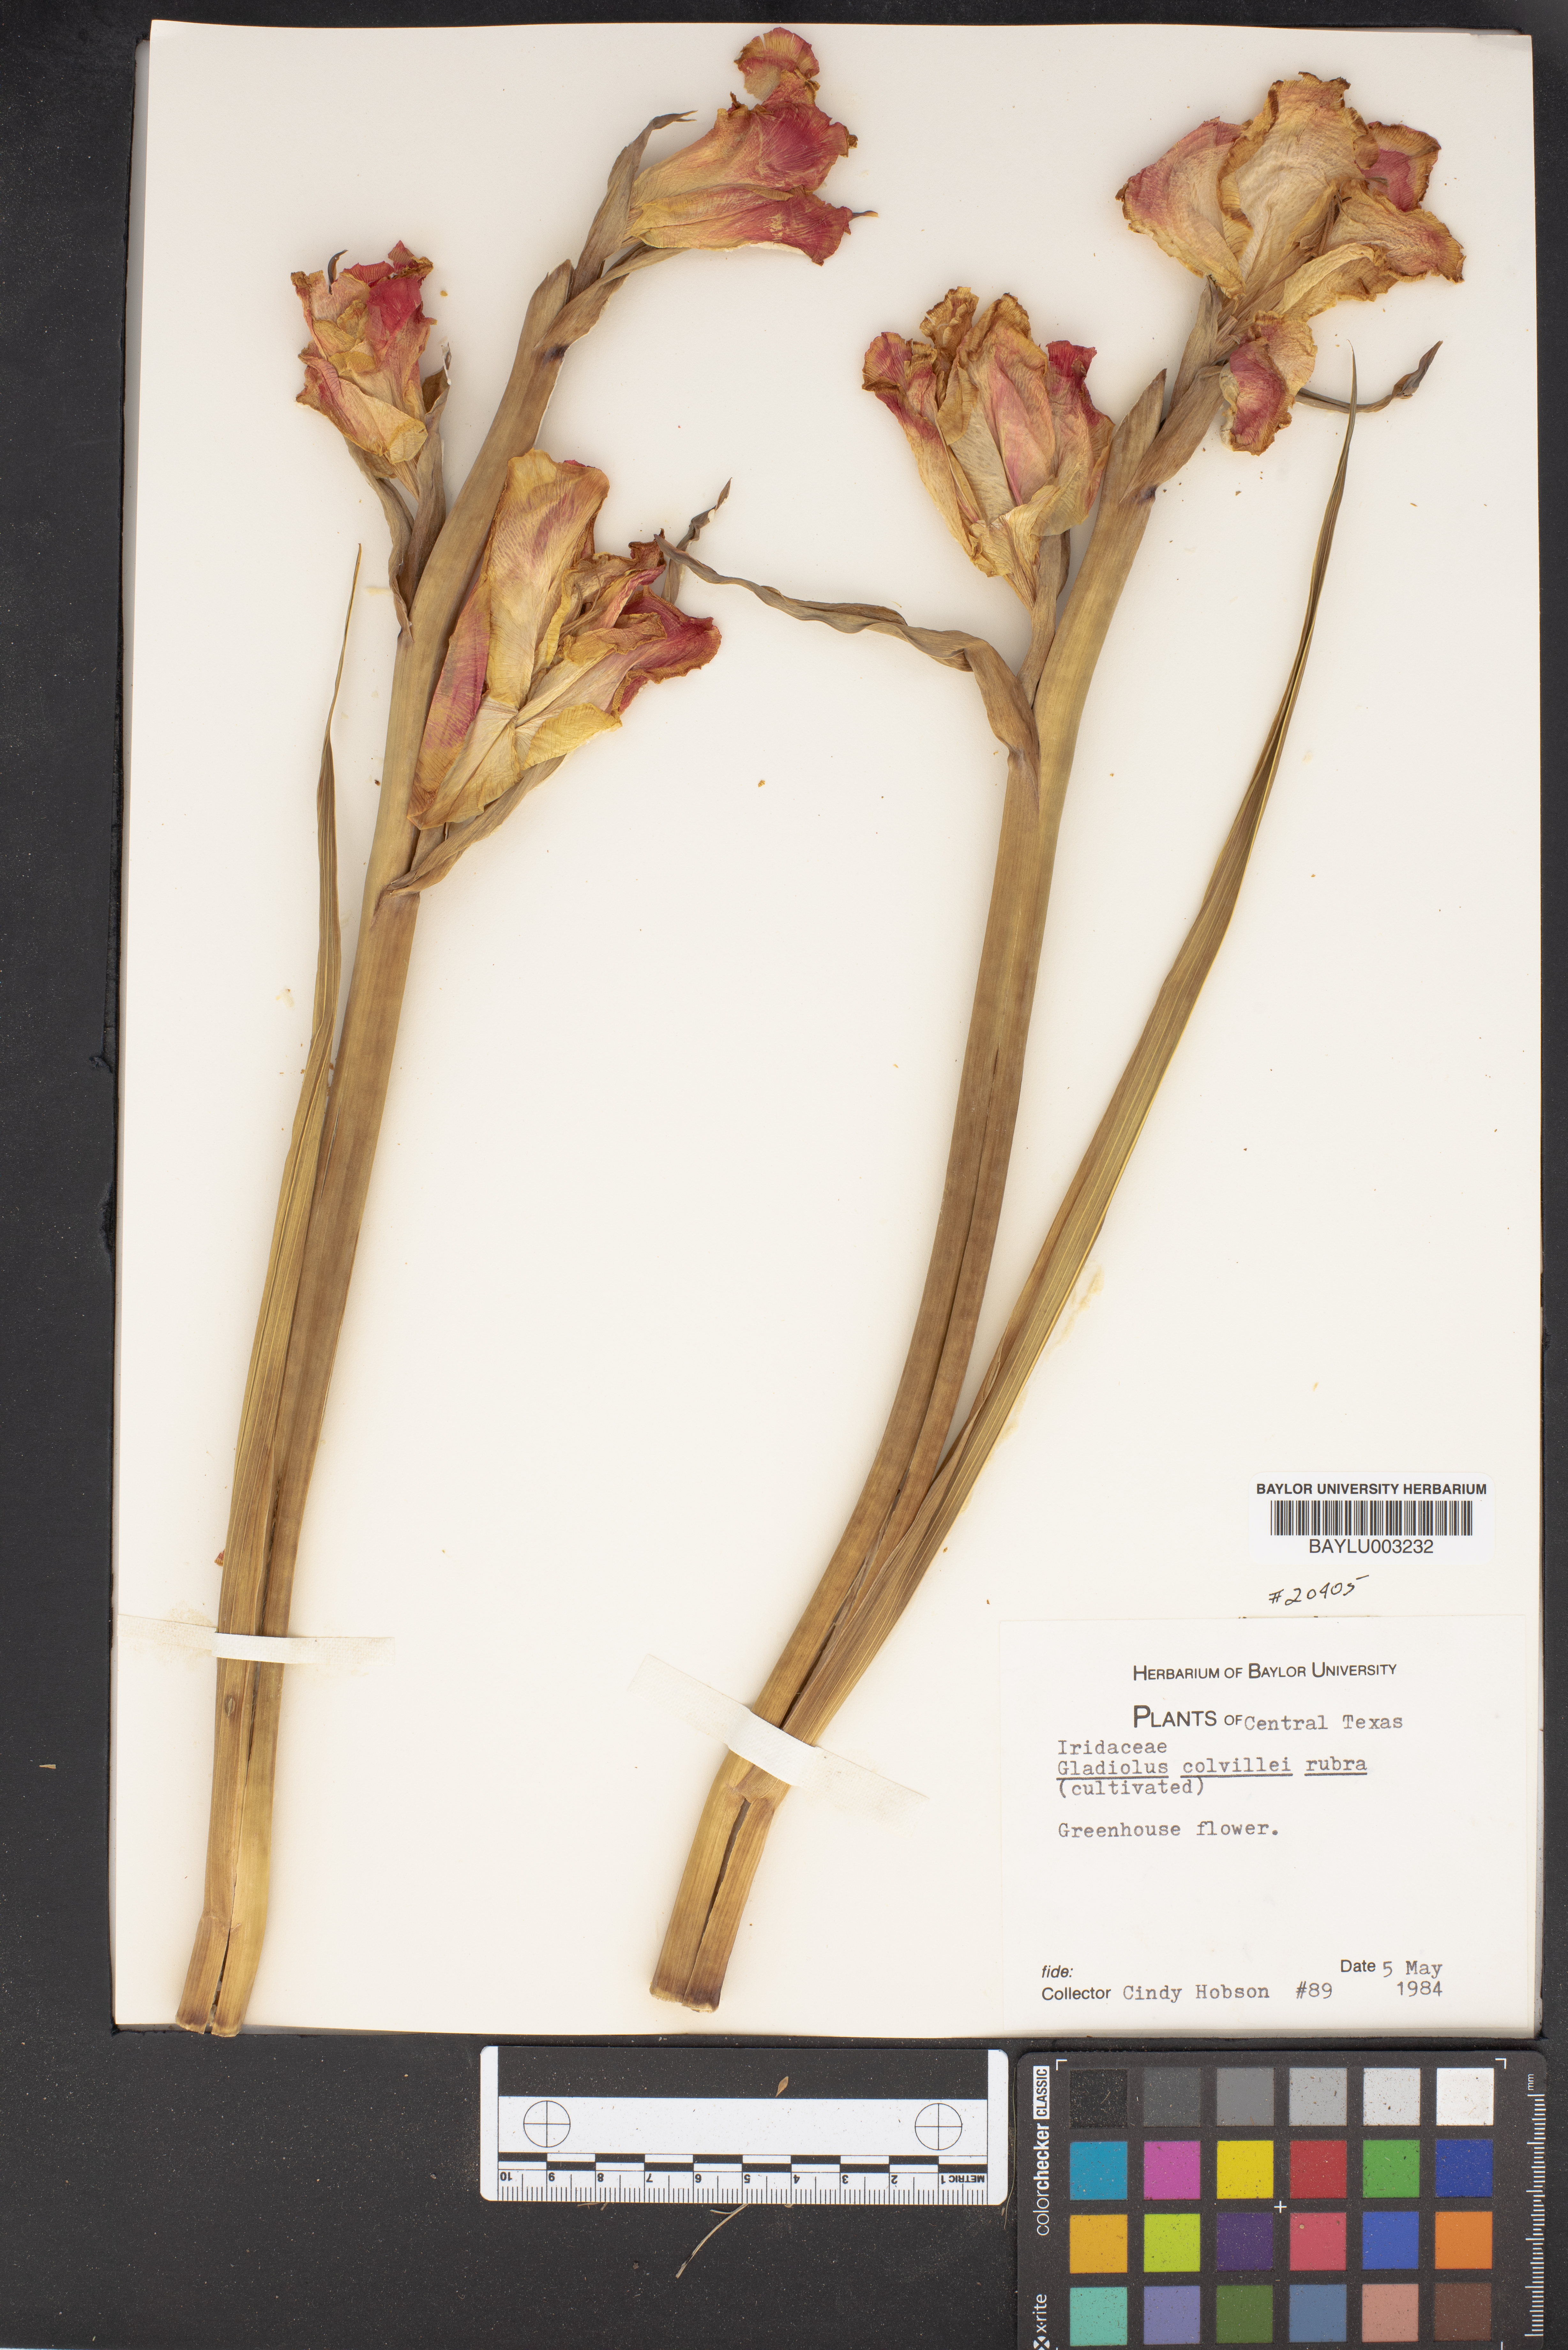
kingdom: Plantae
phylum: Tracheophyta
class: Liliopsida
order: Asparagales
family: Iridaceae
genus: Gladiolus
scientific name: Gladiolus colvillei
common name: Gladiolus
